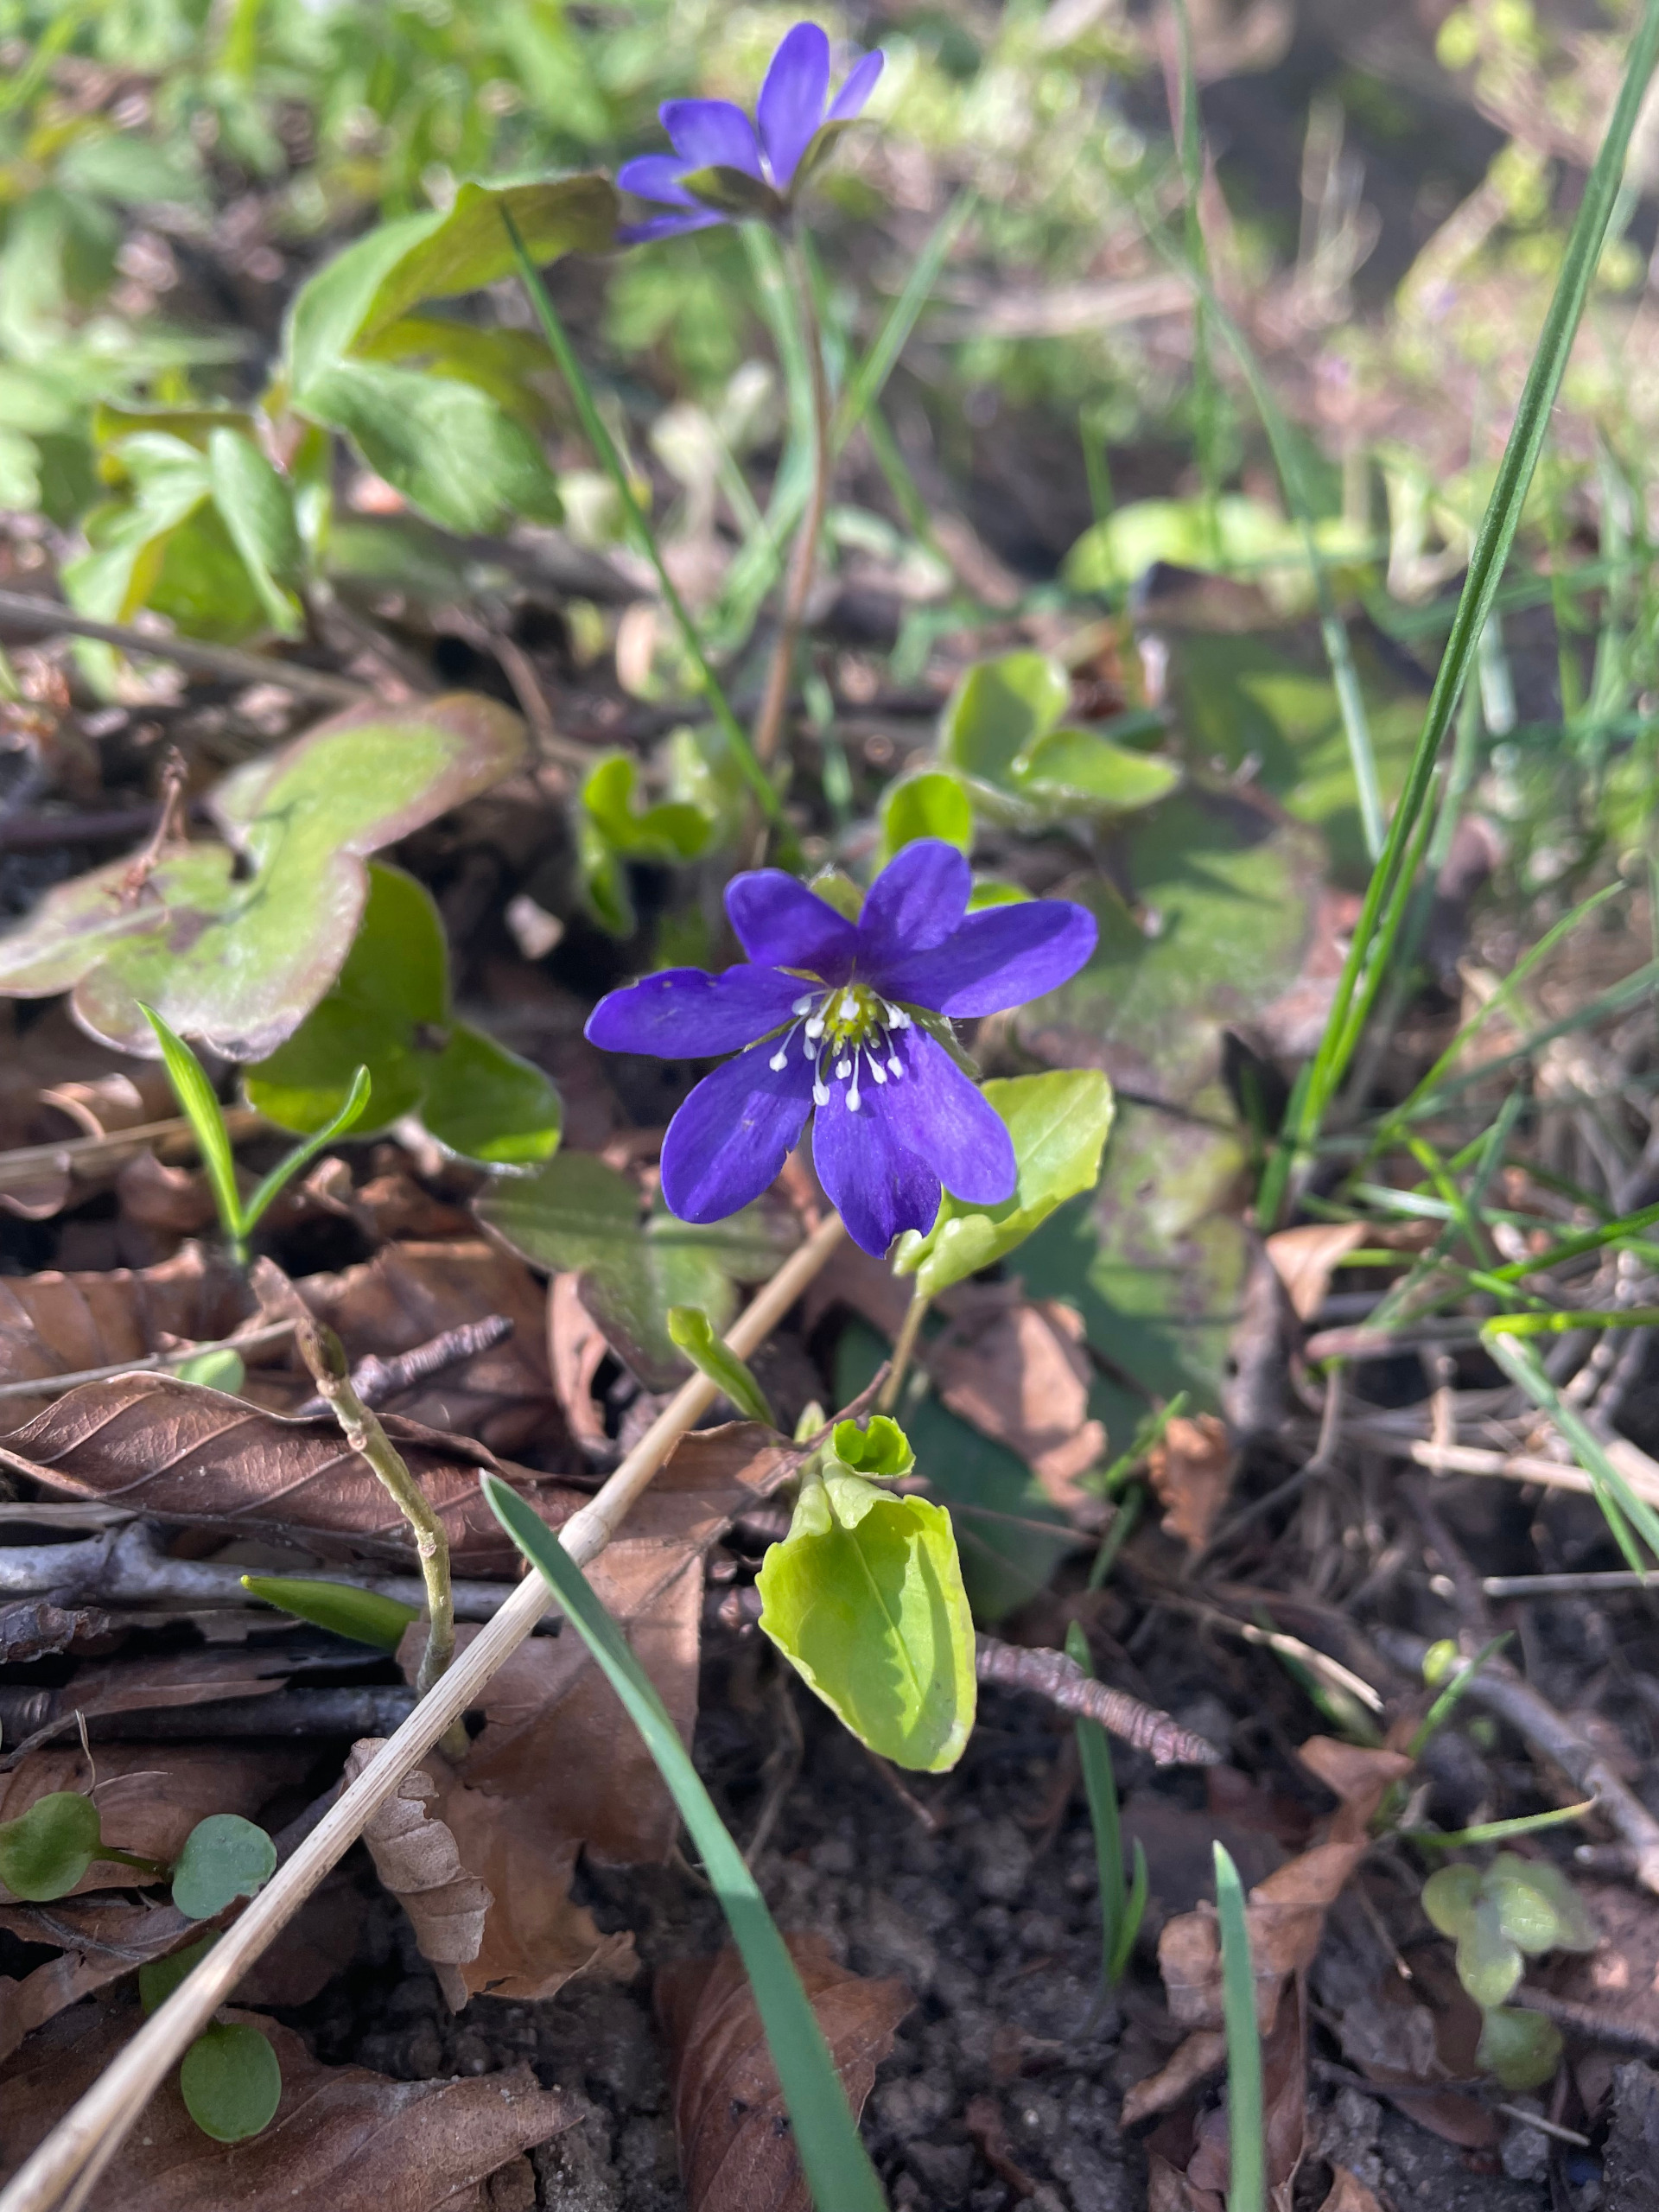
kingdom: Plantae
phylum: Tracheophyta
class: Magnoliopsida
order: Ranunculales
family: Ranunculaceae
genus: Hepatica
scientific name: Hepatica nobilis
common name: Blå anemone
